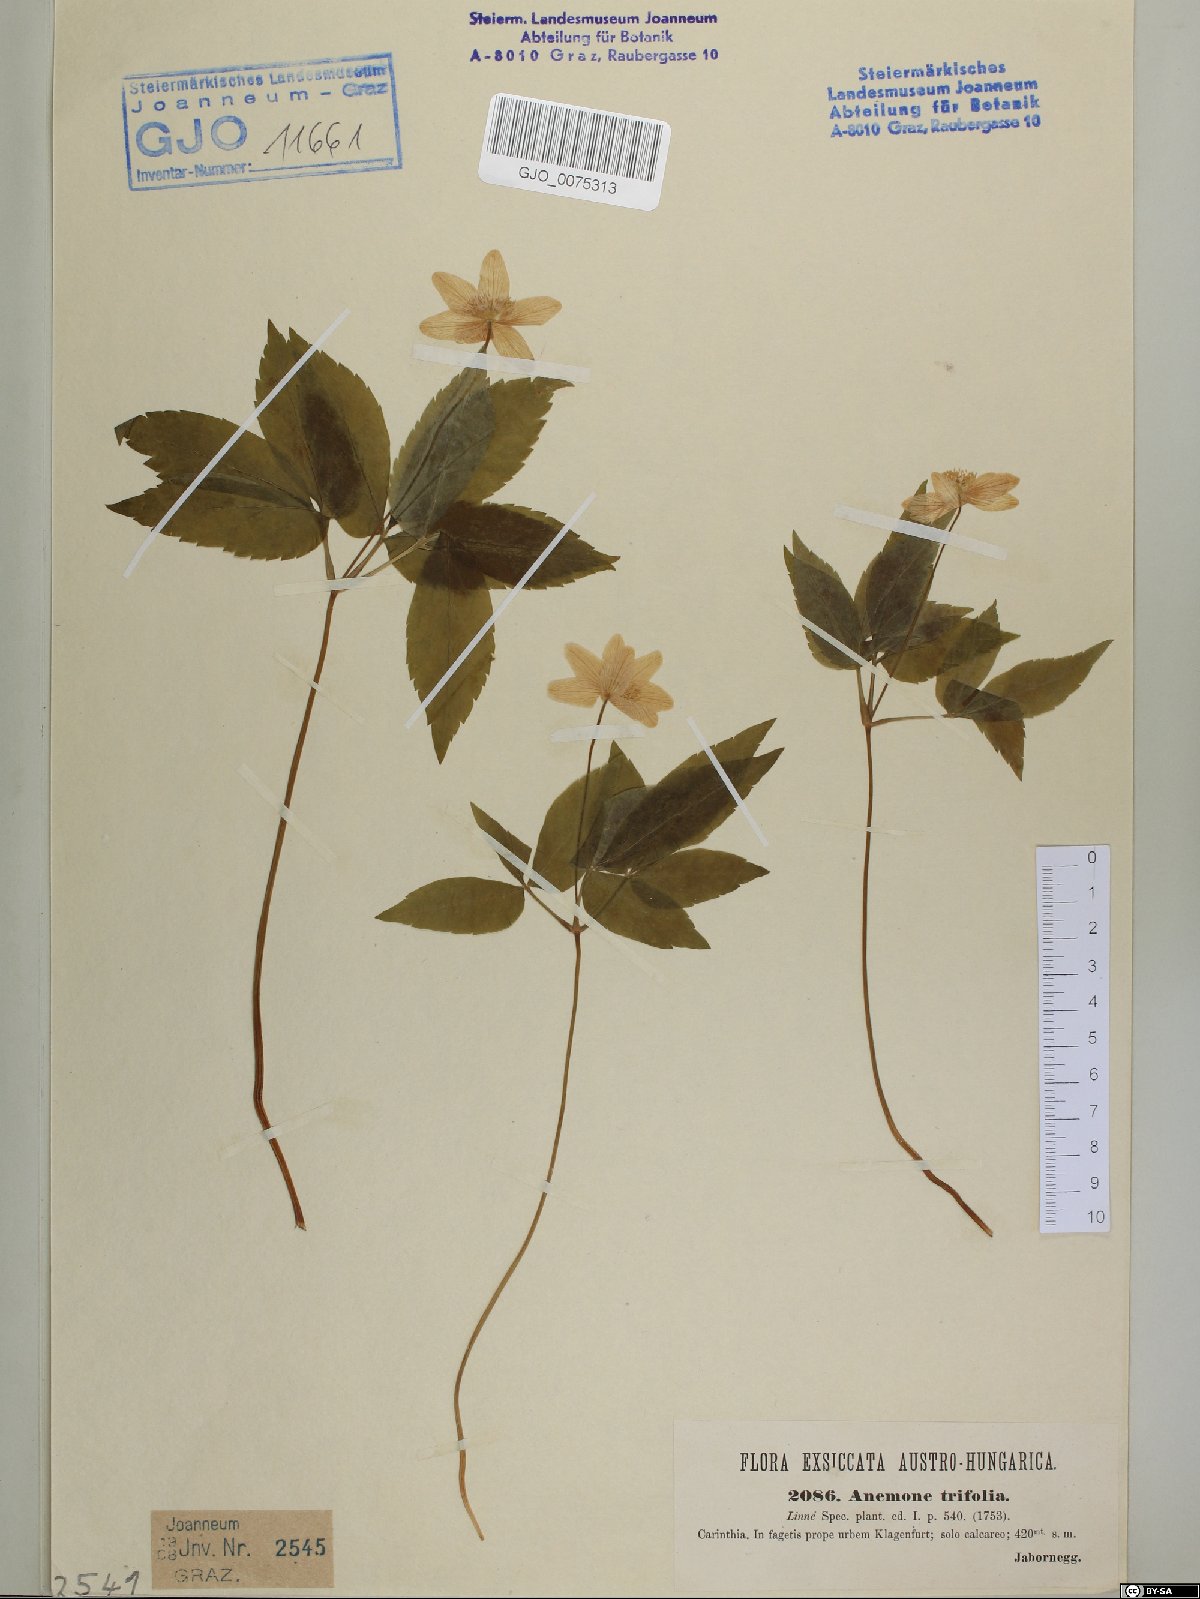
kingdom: Plantae
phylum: Tracheophyta
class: Magnoliopsida
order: Ranunculales
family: Ranunculaceae
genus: Anemone
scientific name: Anemone trifolia
